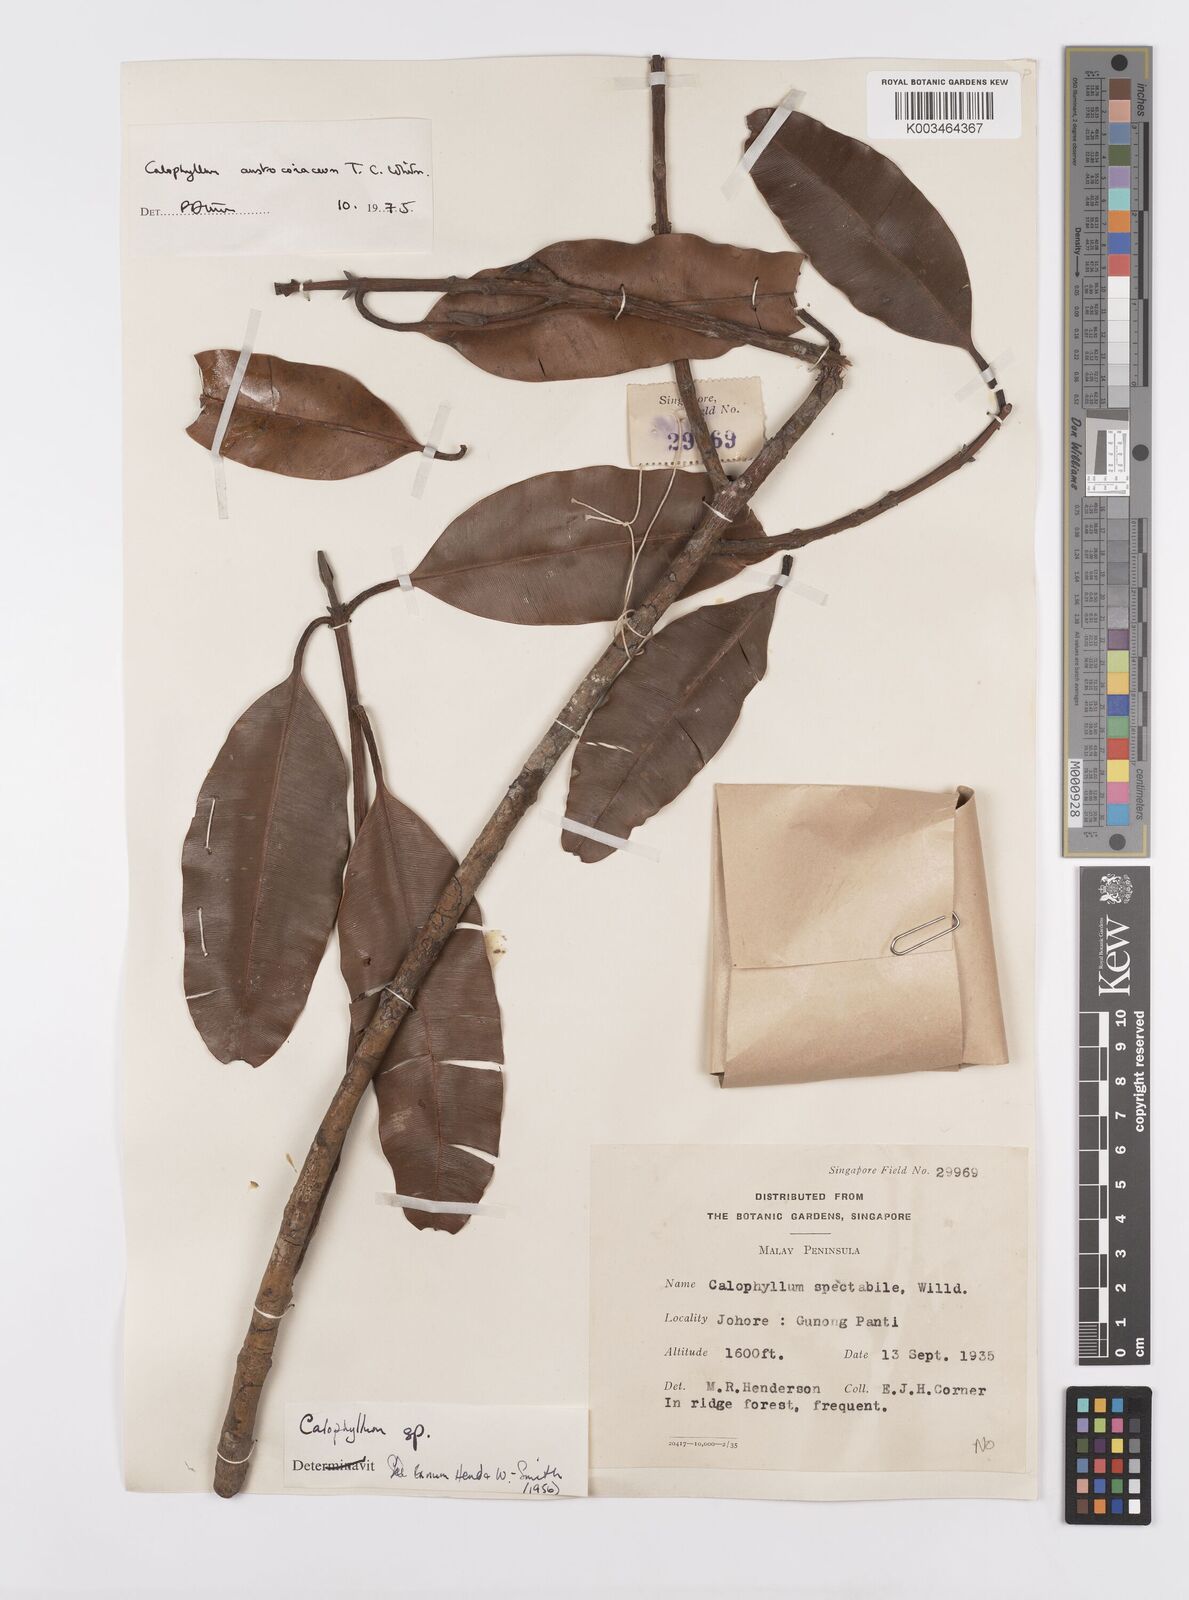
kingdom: Plantae
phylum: Tracheophyta
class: Magnoliopsida
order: Malpighiales
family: Calophyllaceae
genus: Calophyllum
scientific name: Calophyllum lanigerum
